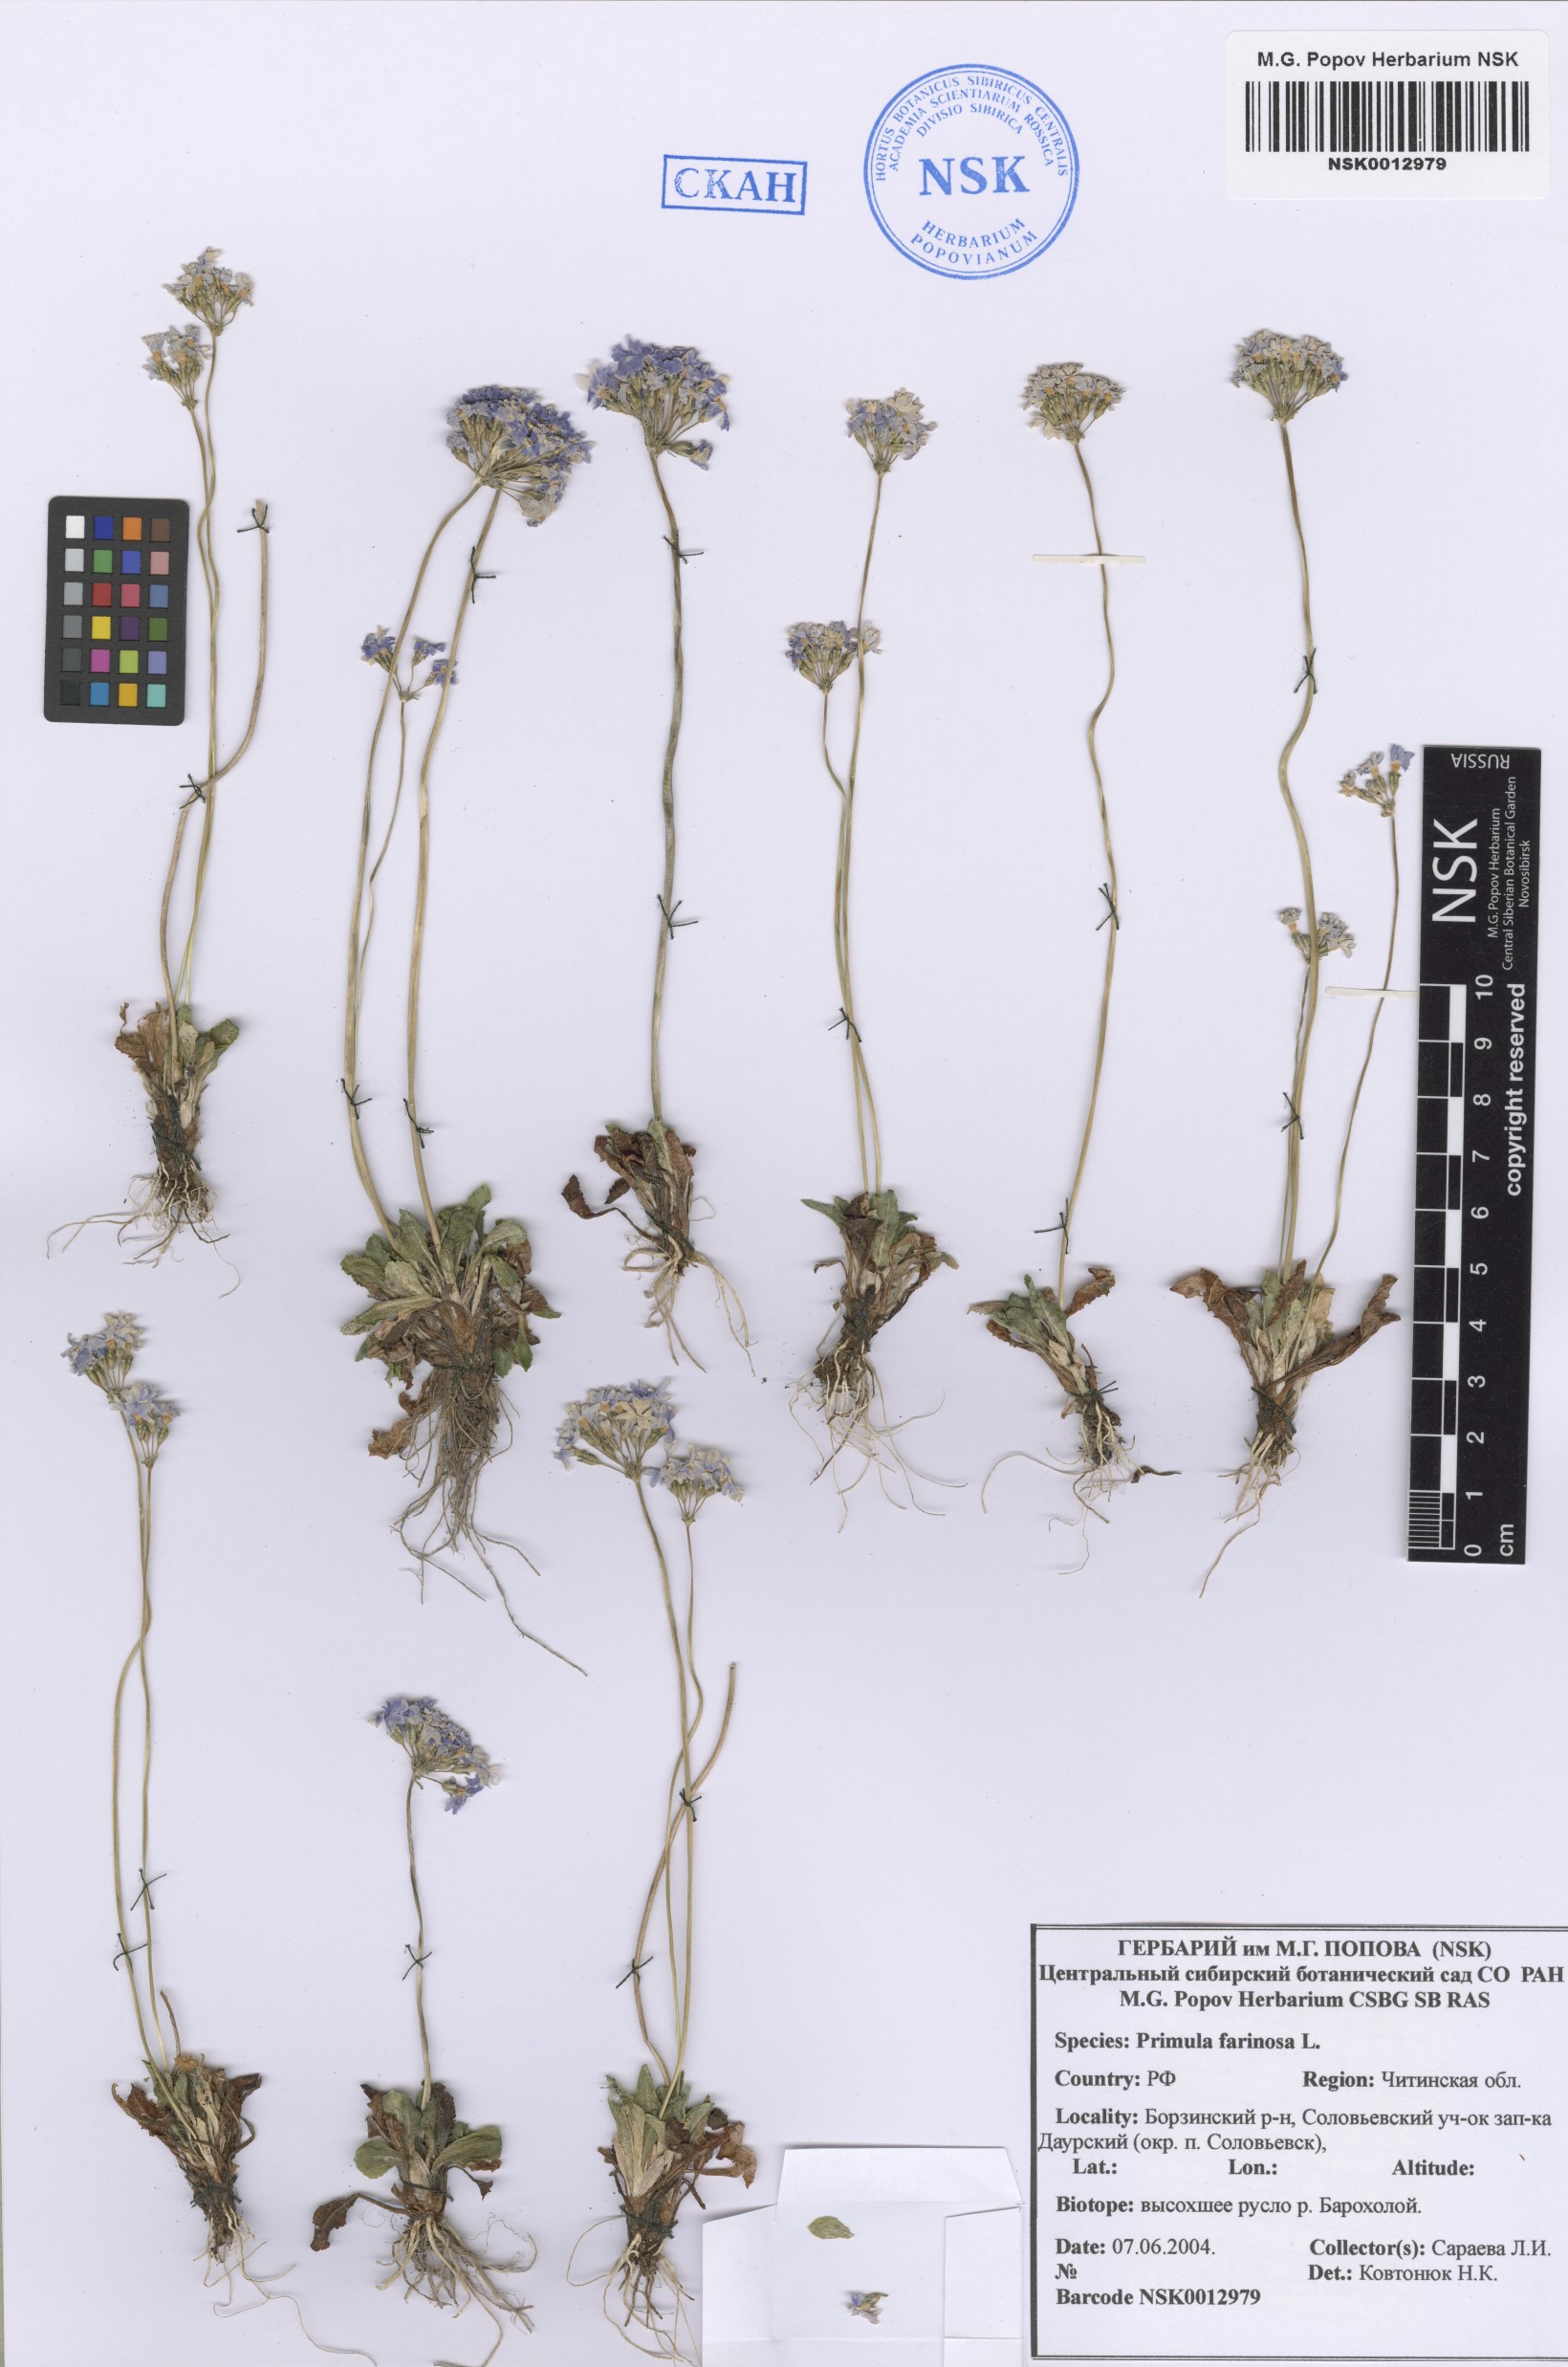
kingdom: Plantae
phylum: Tracheophyta
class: Magnoliopsida
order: Ericales
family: Primulaceae
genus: Primula
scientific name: Primula farinosa
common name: Bird's-eye primrose
